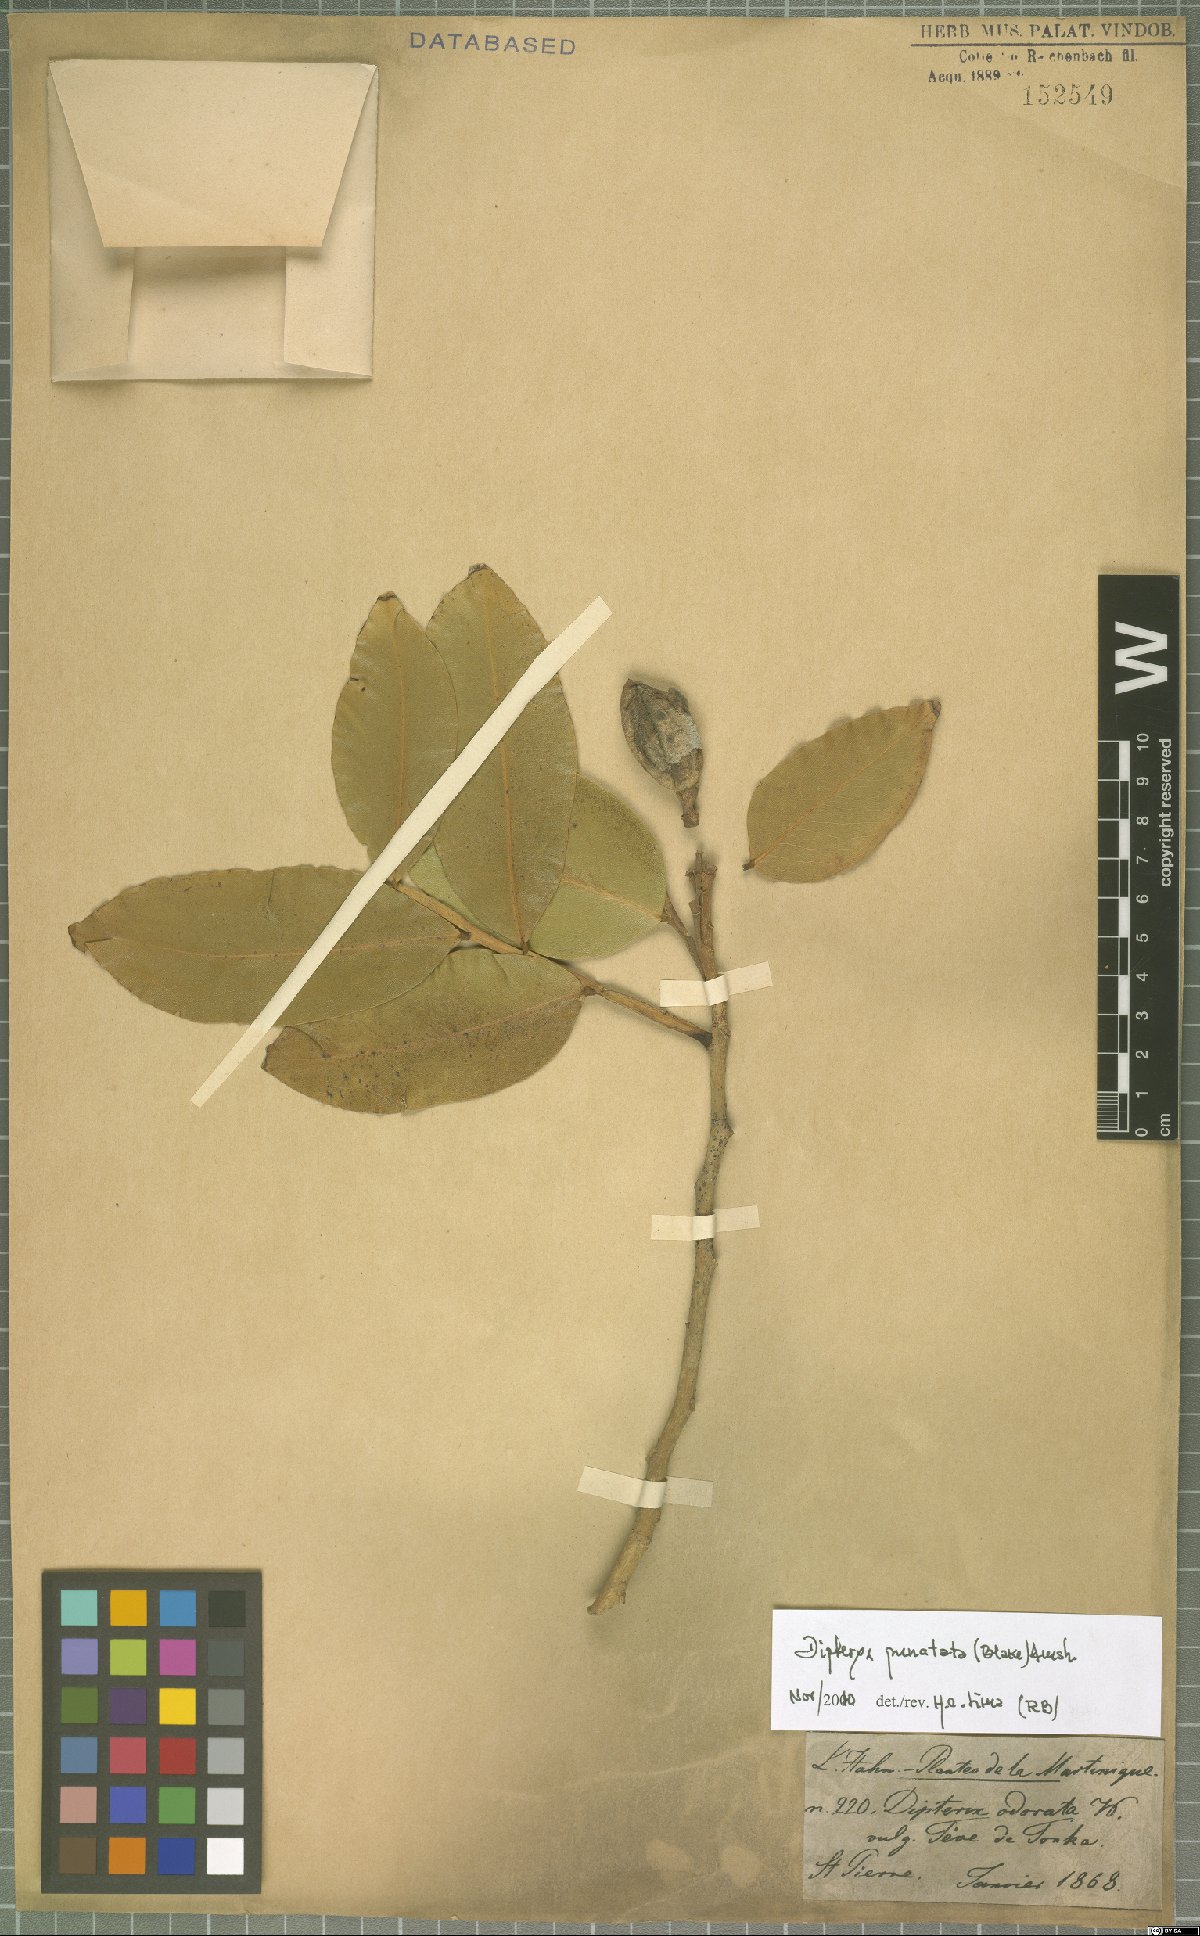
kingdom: Plantae
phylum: Tracheophyta
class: Magnoliopsida
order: Fabales
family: Fabaceae
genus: Dipteryx
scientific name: Dipteryx punctata
